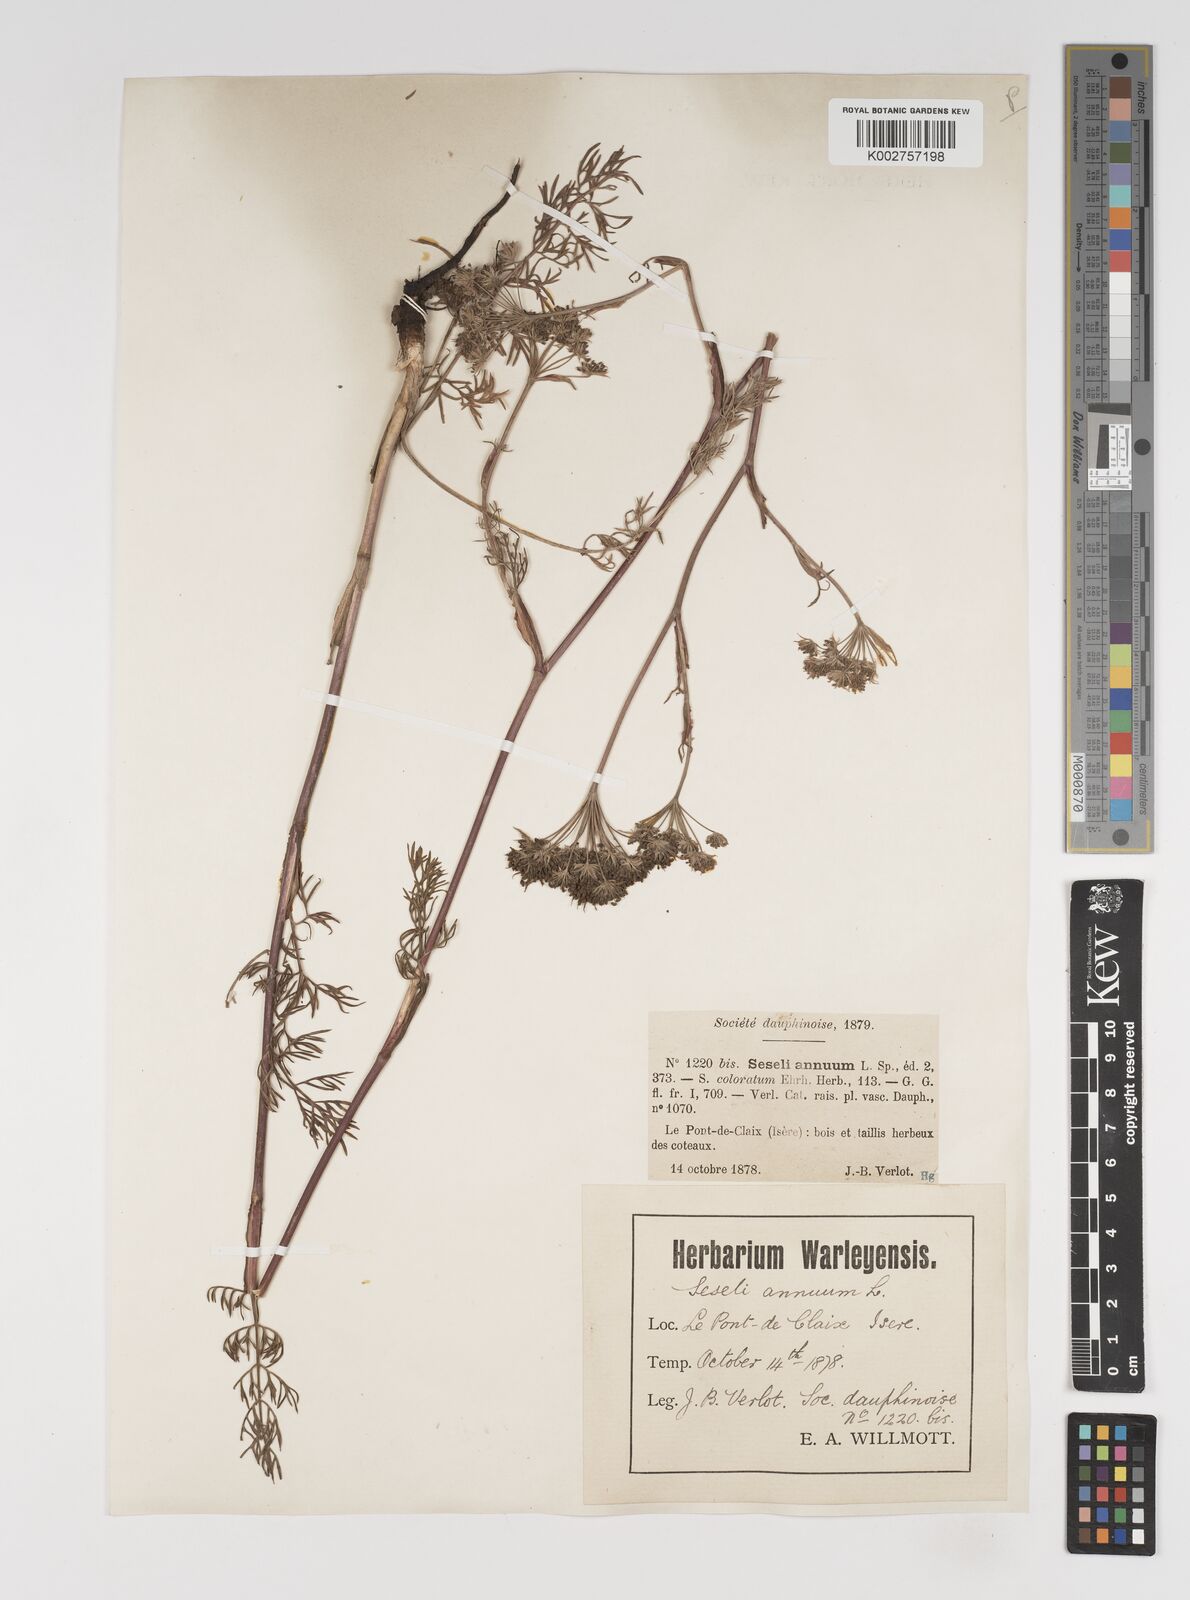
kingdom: Plantae
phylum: Tracheophyta
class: Magnoliopsida
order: Apiales
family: Apiaceae
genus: Seseli
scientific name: Seseli annuum
